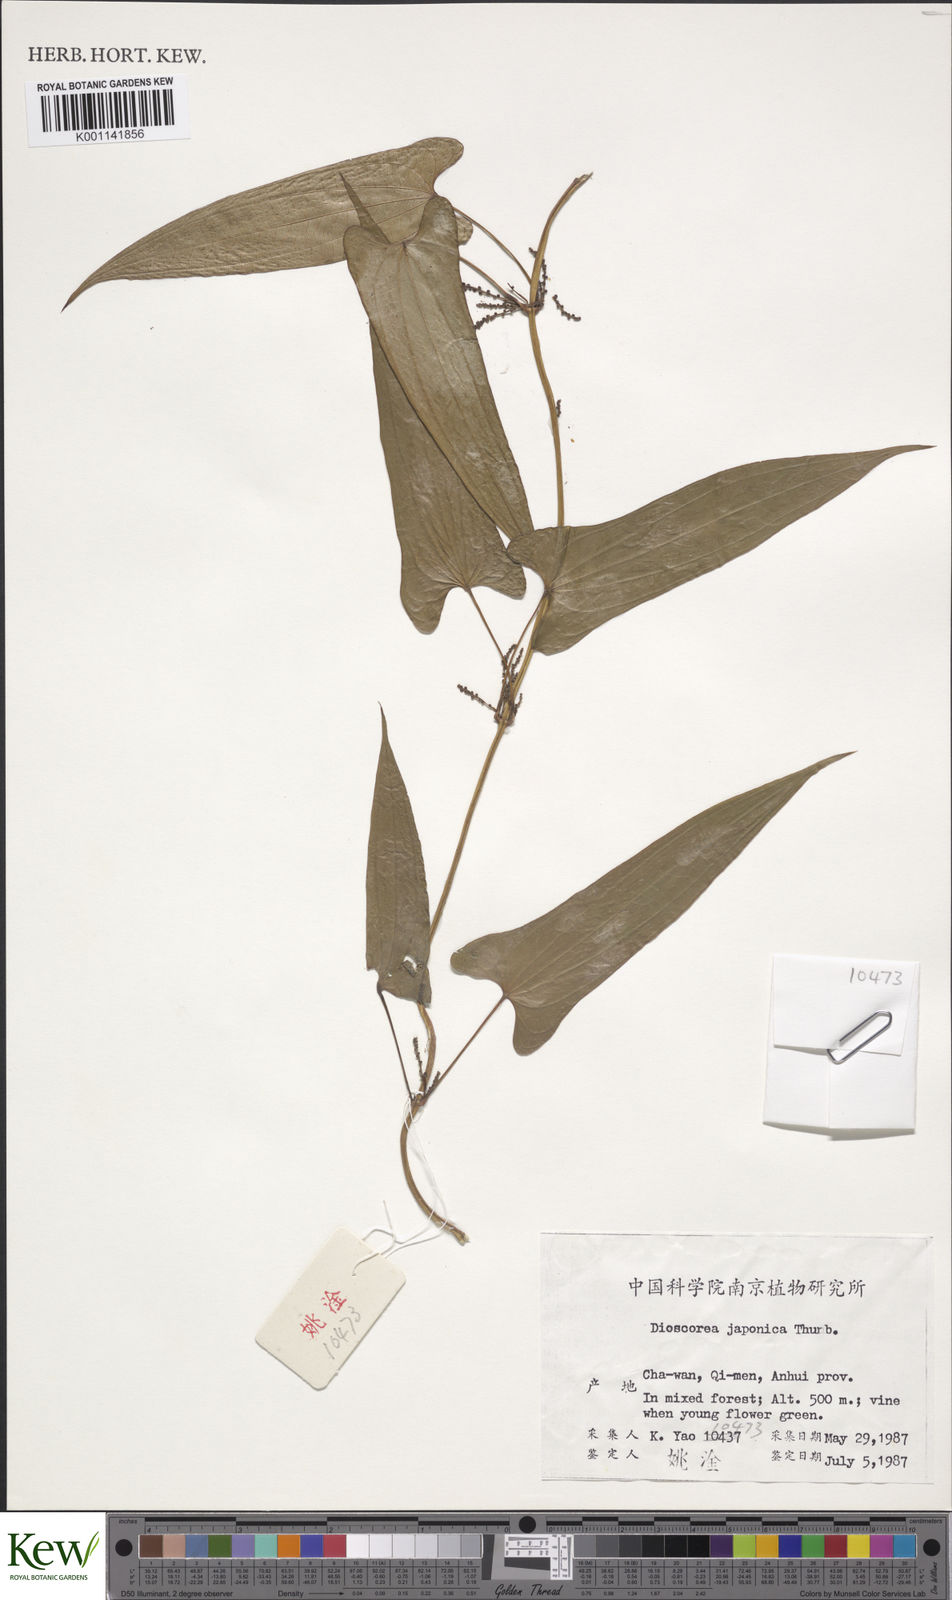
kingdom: Plantae
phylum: Tracheophyta
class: Liliopsida
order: Dioscoreales
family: Dioscoreaceae
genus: Dioscorea
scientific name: Dioscorea japonica
